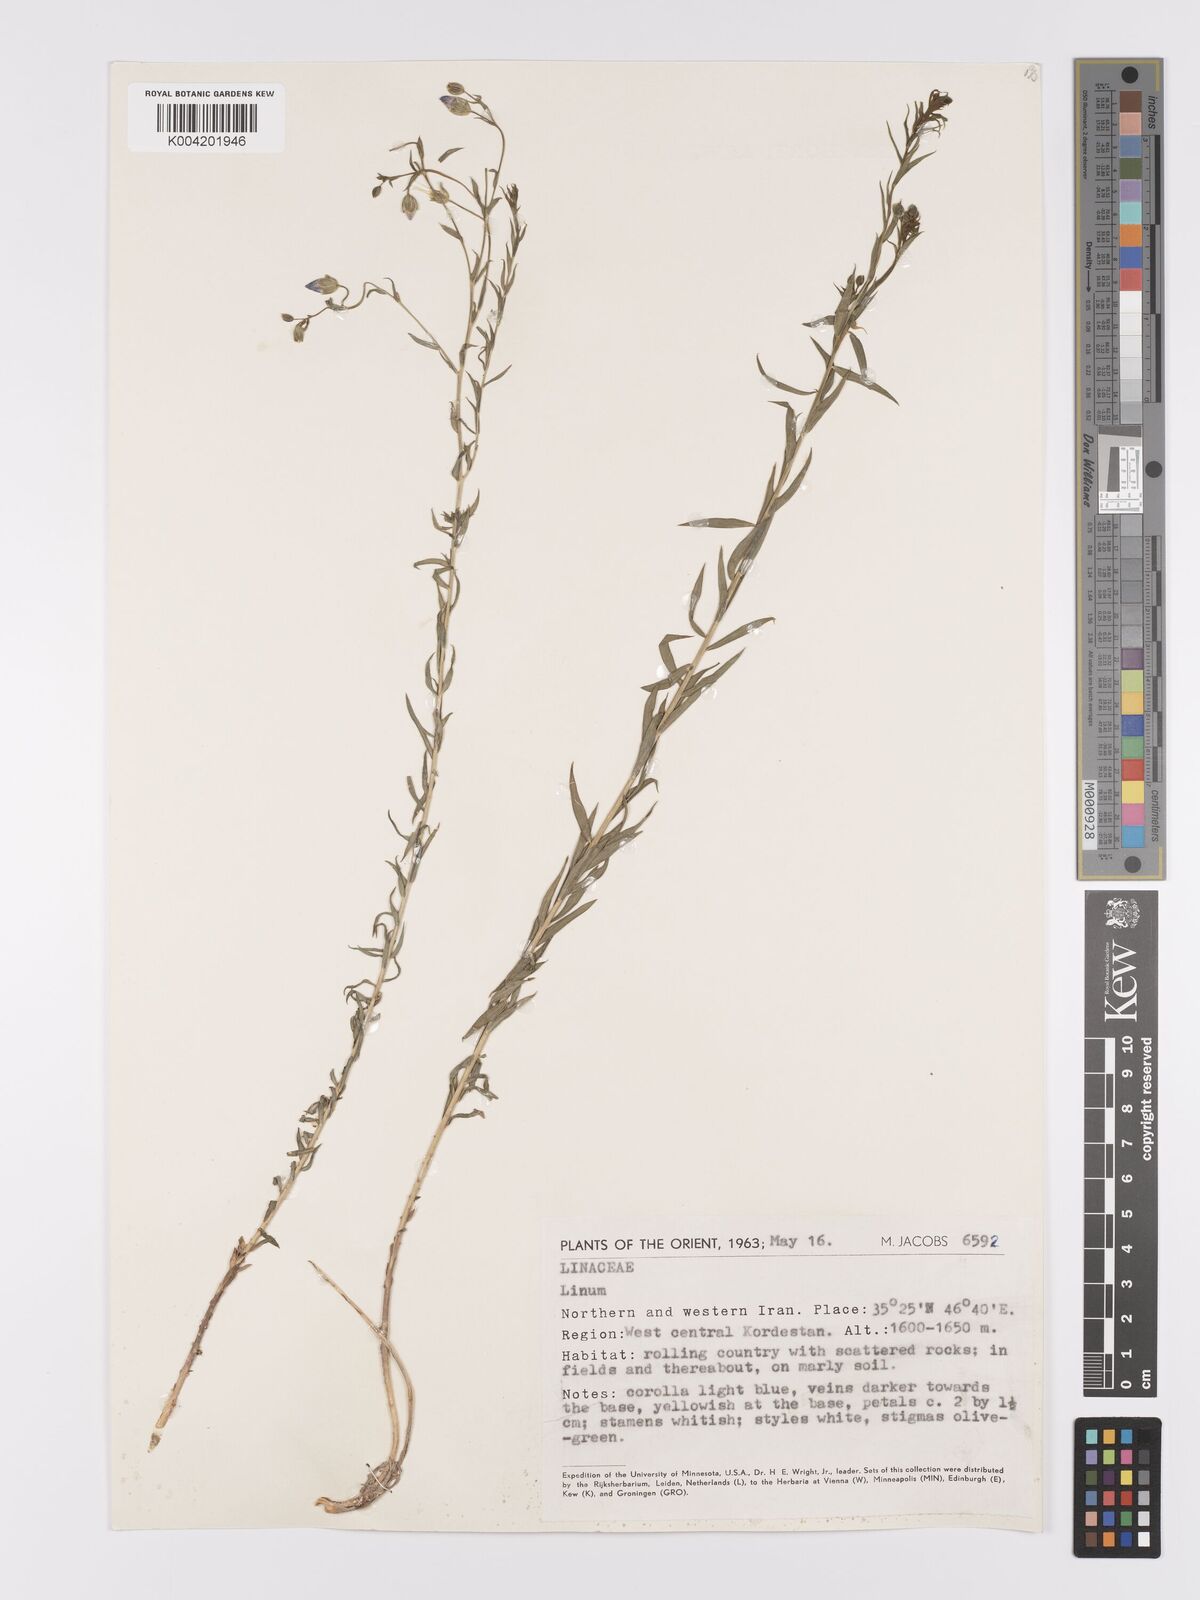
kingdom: Plantae
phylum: Tracheophyta
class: Magnoliopsida
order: Malpighiales
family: Linaceae
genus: Linum
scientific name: Linum
